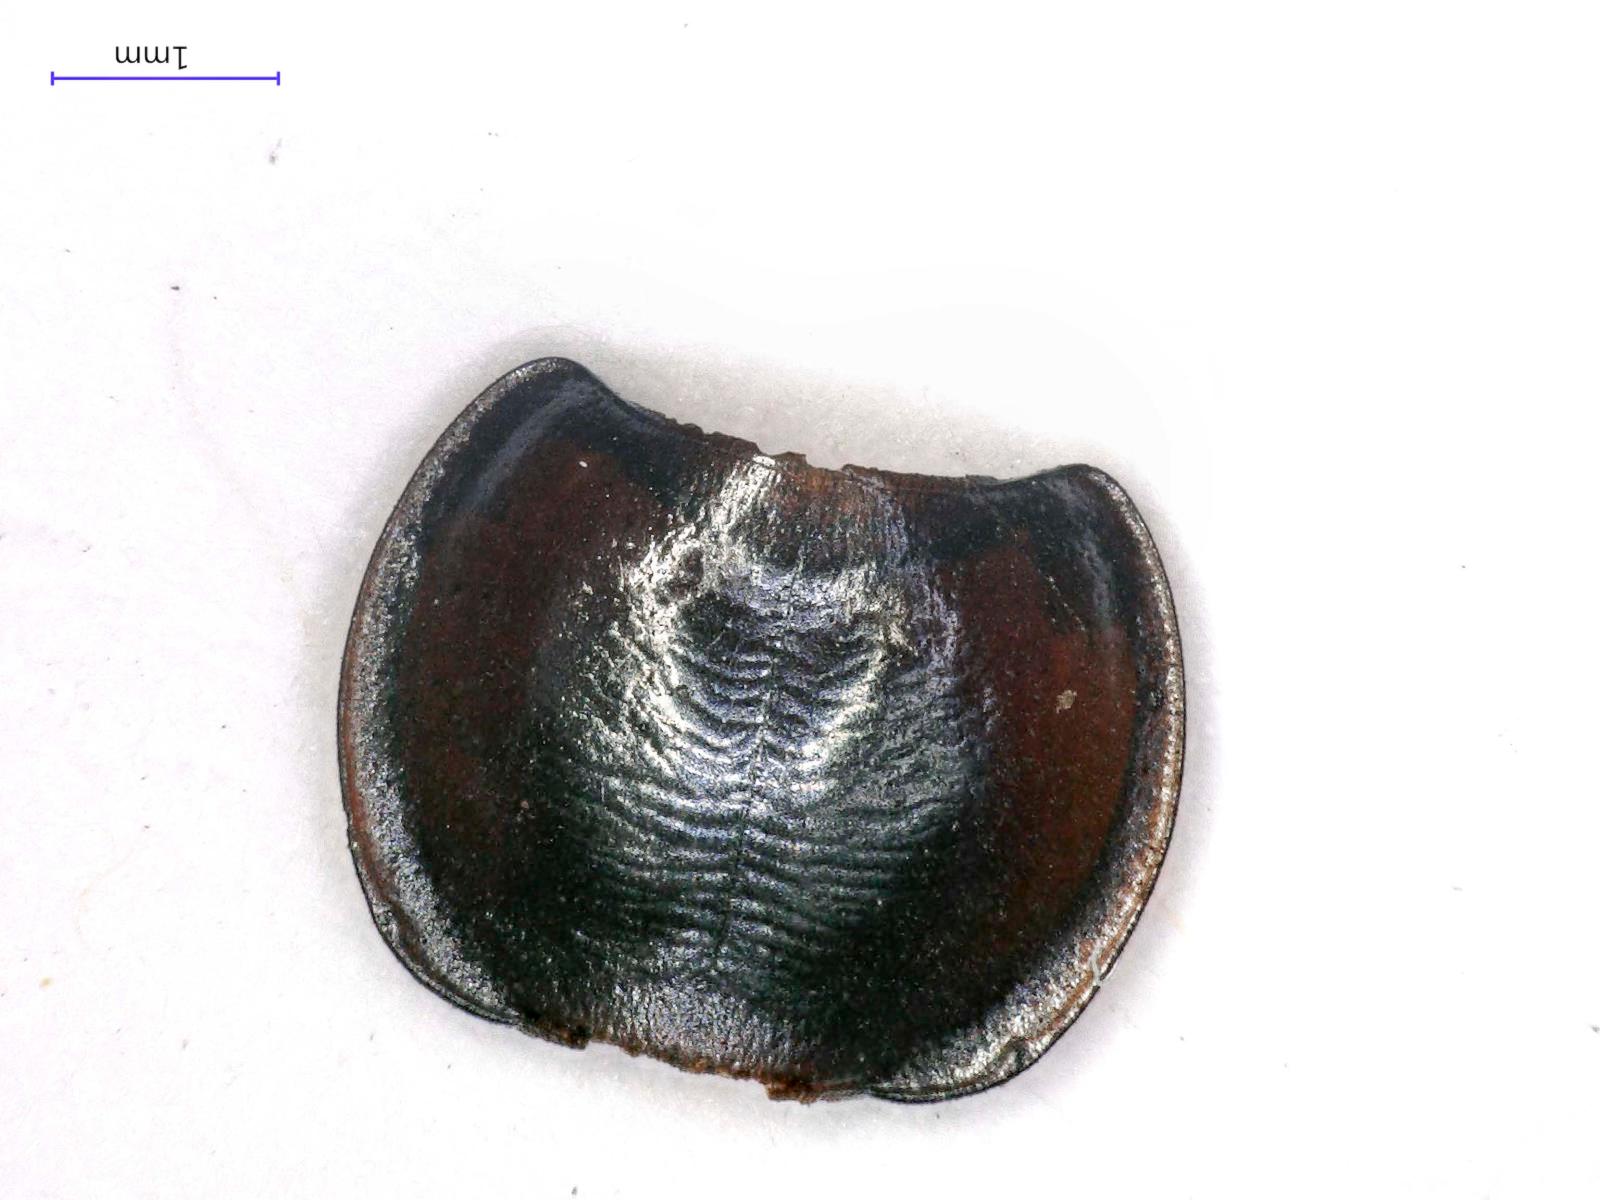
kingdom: Animalia
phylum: Arthropoda
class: Insecta
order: Coleoptera
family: Carabidae
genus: Tanystoma
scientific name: Tanystoma maculicolle
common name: Tule beetle
